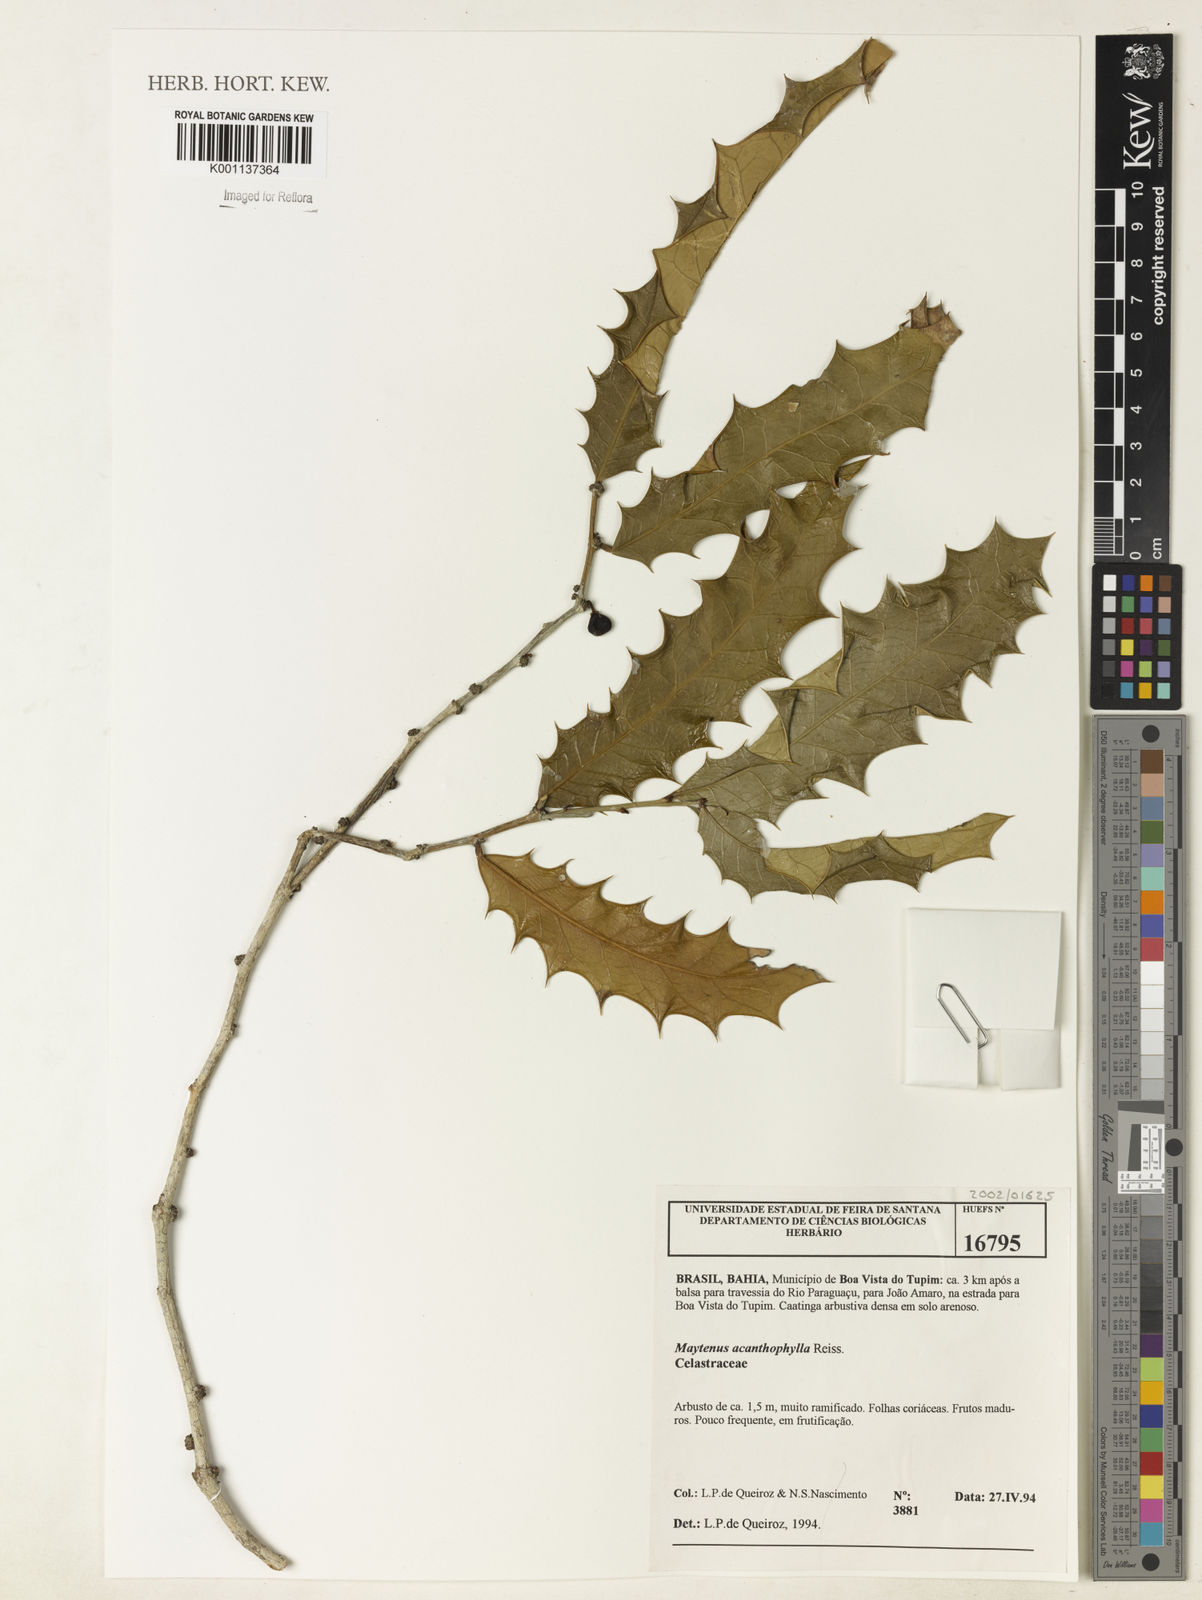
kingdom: Plantae
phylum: Tracheophyta
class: Magnoliopsida
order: Celastrales
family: Celastraceae
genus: Monteverdia
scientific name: Monteverdia acanthophylla
